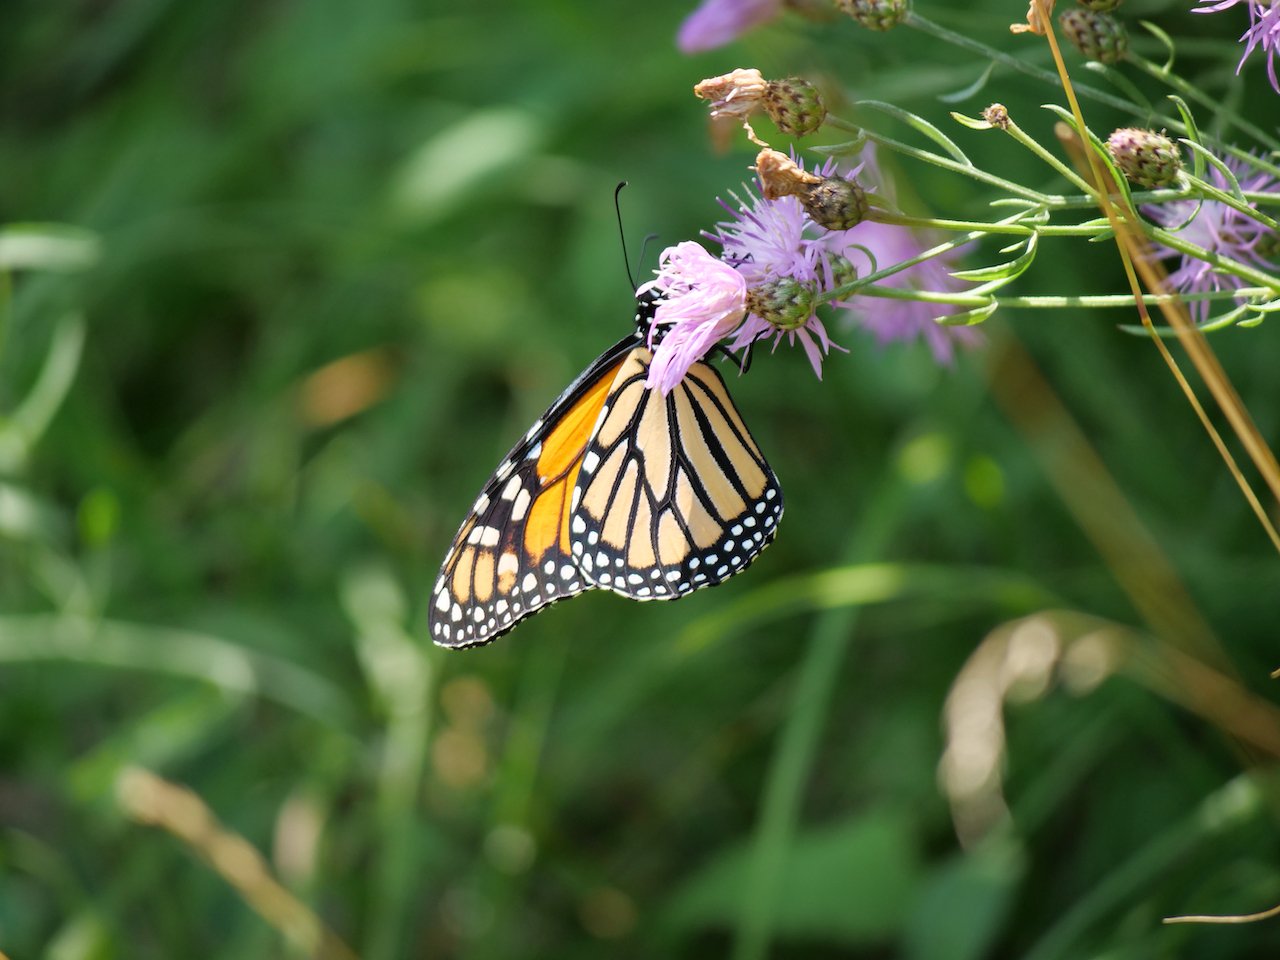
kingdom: Animalia
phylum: Arthropoda
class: Insecta
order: Lepidoptera
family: Nymphalidae
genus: Danaus
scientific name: Danaus plexippus
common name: Monarch
